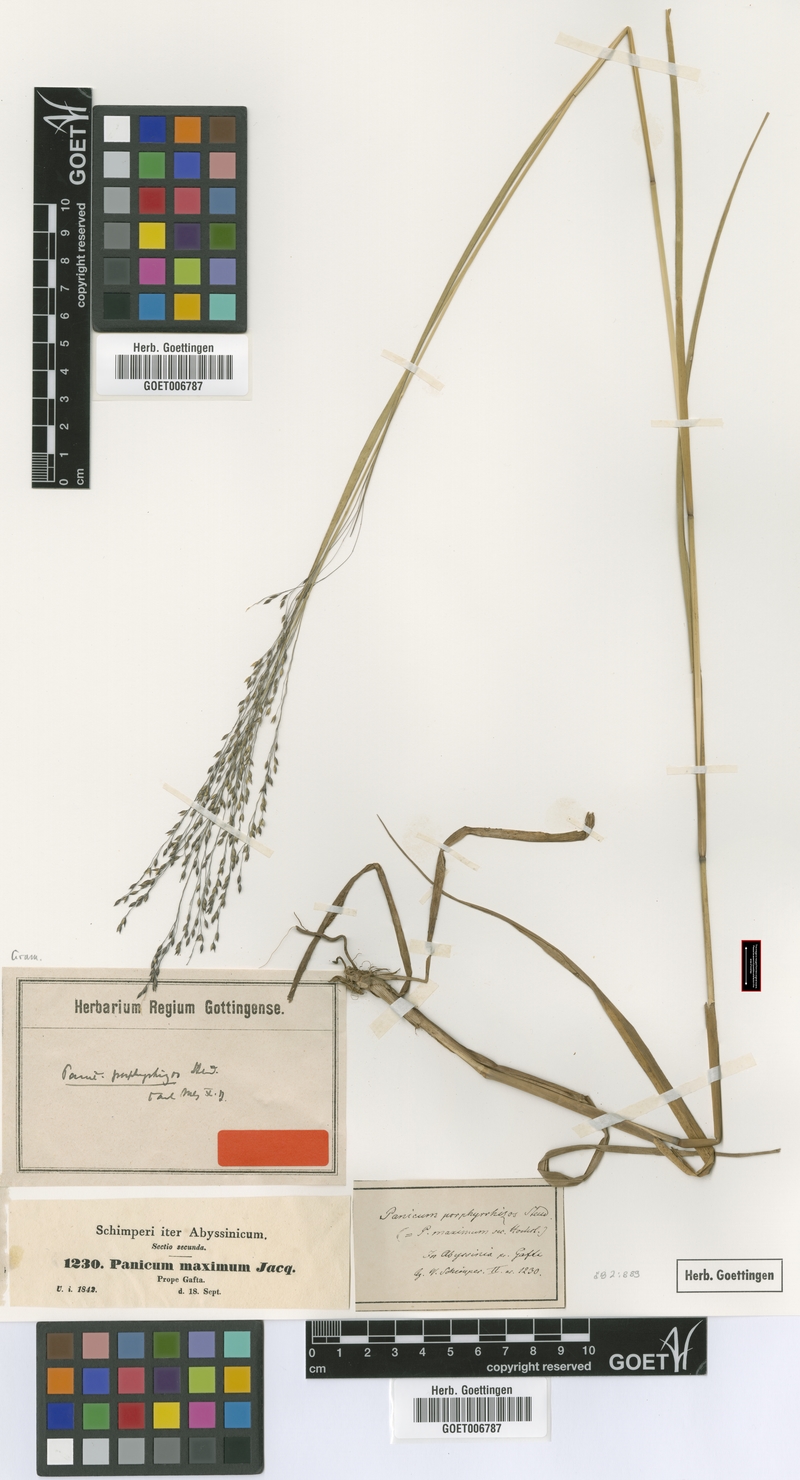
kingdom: Plantae
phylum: Tracheophyta
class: Liliopsida
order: Poales
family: Poaceae
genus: Panicum
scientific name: Panicum porphyrrhizos
